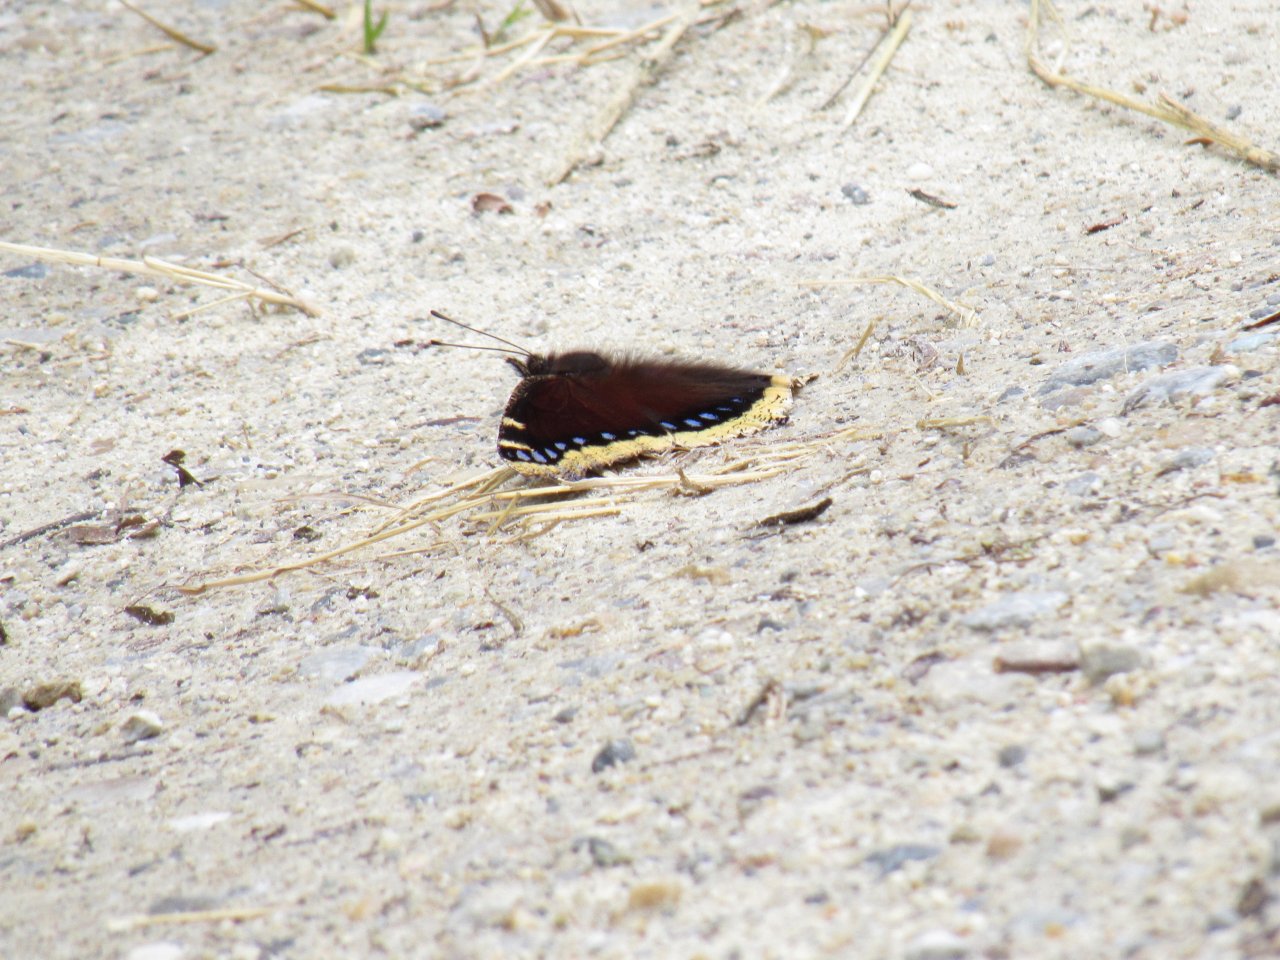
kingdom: Animalia
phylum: Arthropoda
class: Insecta
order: Lepidoptera
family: Nymphalidae
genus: Nymphalis
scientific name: Nymphalis antiopa
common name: Mourning Cloak
